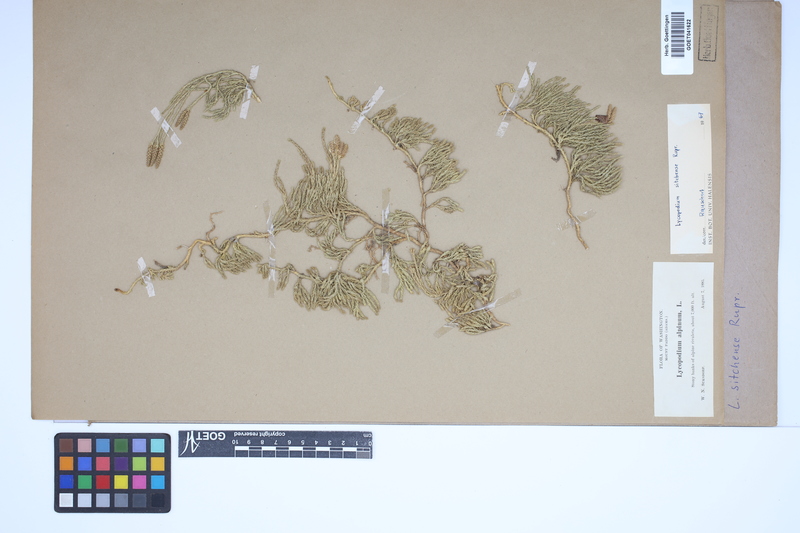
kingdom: Plantae
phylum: Tracheophyta
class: Lycopodiopsida
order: Lycopodiales
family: Lycopodiaceae
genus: Diphasiastrum
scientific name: Diphasiastrum sitchense
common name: Alaska clubmoss
